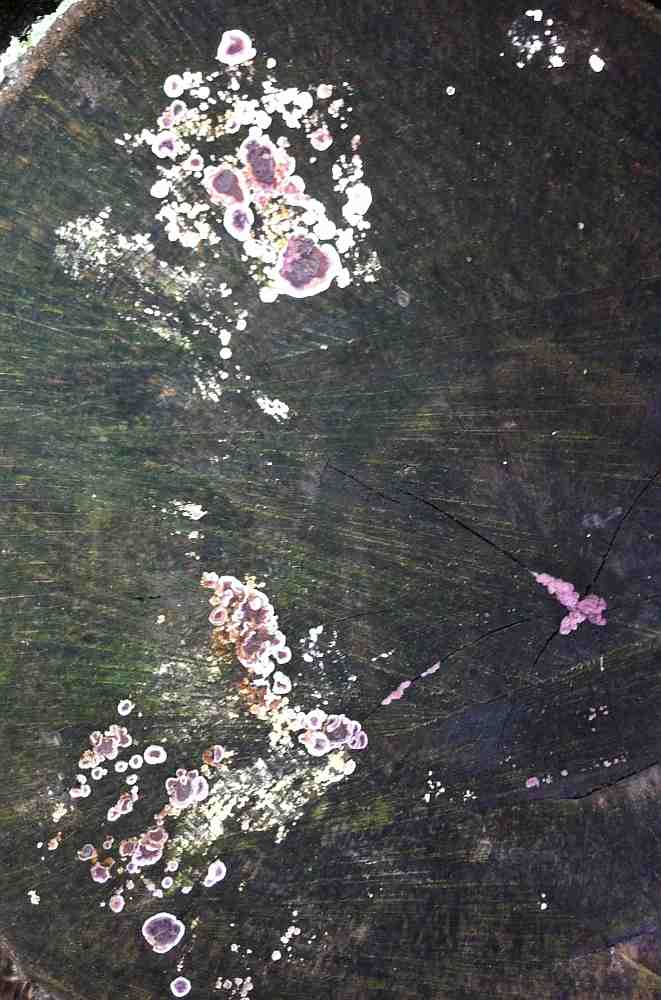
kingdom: Fungi
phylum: Basidiomycota
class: Agaricomycetes
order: Agaricales
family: Cyphellaceae
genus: Chondrostereum
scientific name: Chondrostereum purpureum
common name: purpurlædersvamp
